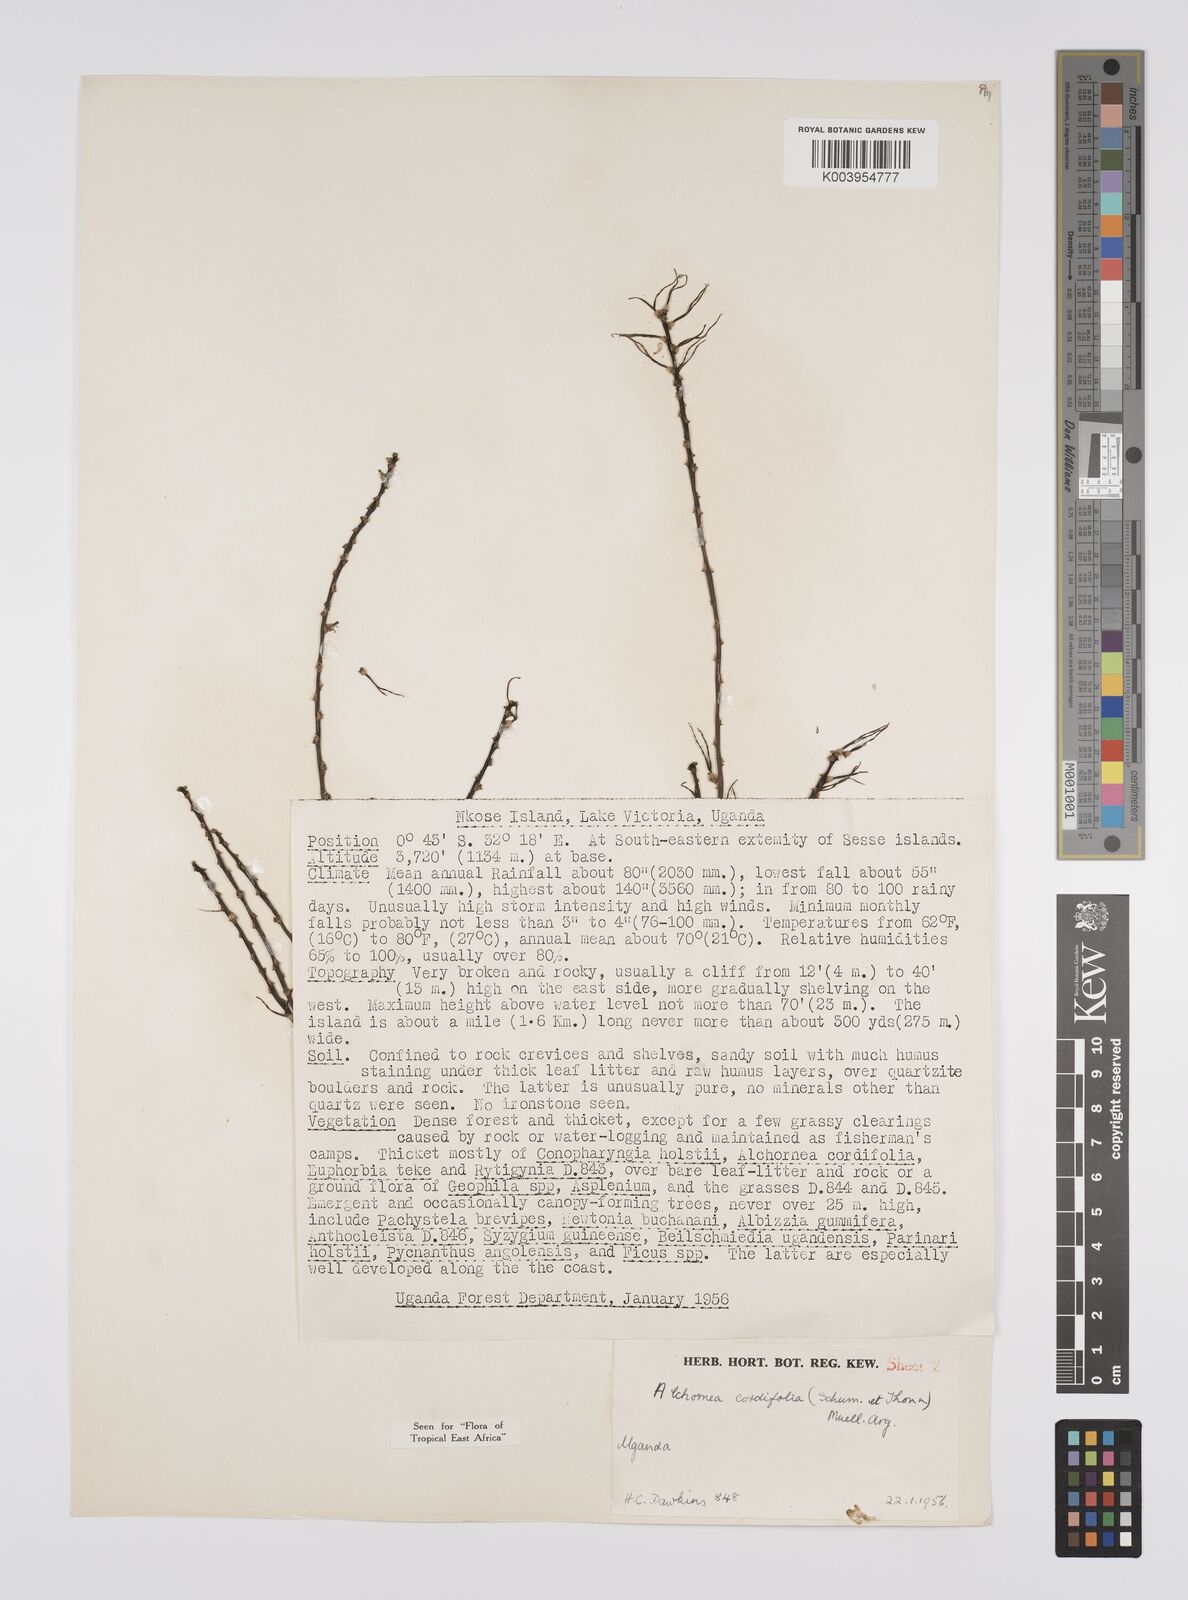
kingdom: Plantae
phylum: Tracheophyta
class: Magnoliopsida
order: Malpighiales
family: Euphorbiaceae
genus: Alchornea
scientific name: Alchornea cordifolia
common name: Christmasbush
